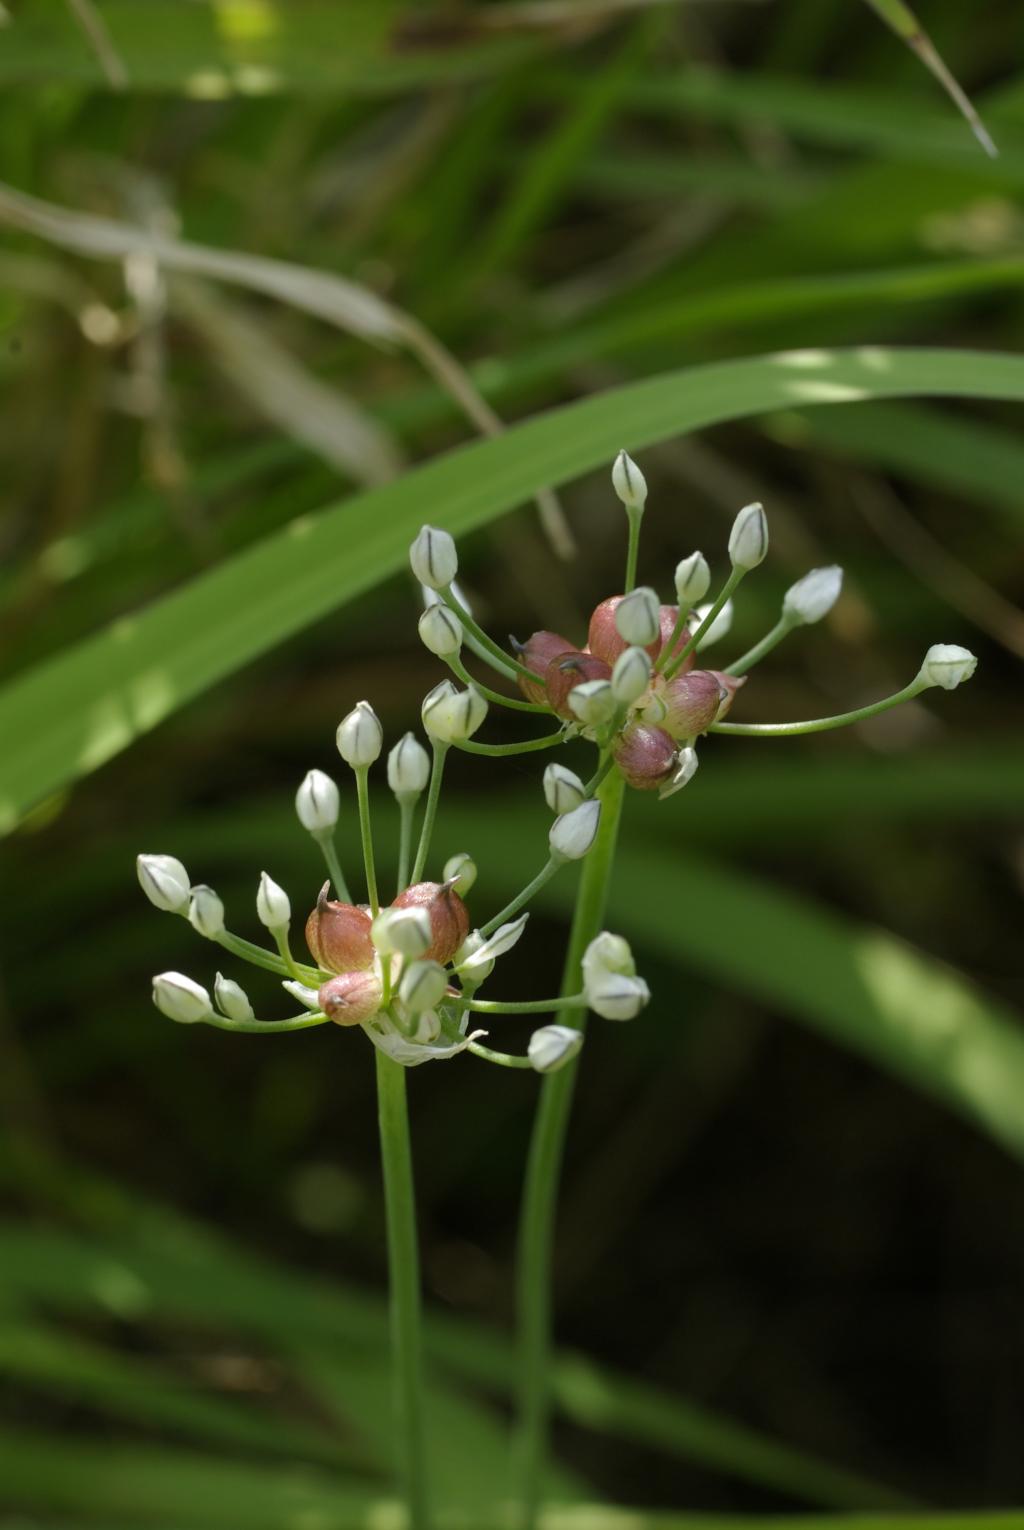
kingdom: Plantae
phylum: Tracheophyta
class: Liliopsida
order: Asparagales
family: Amaryllidaceae
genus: Allium
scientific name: Allium macrostemon
